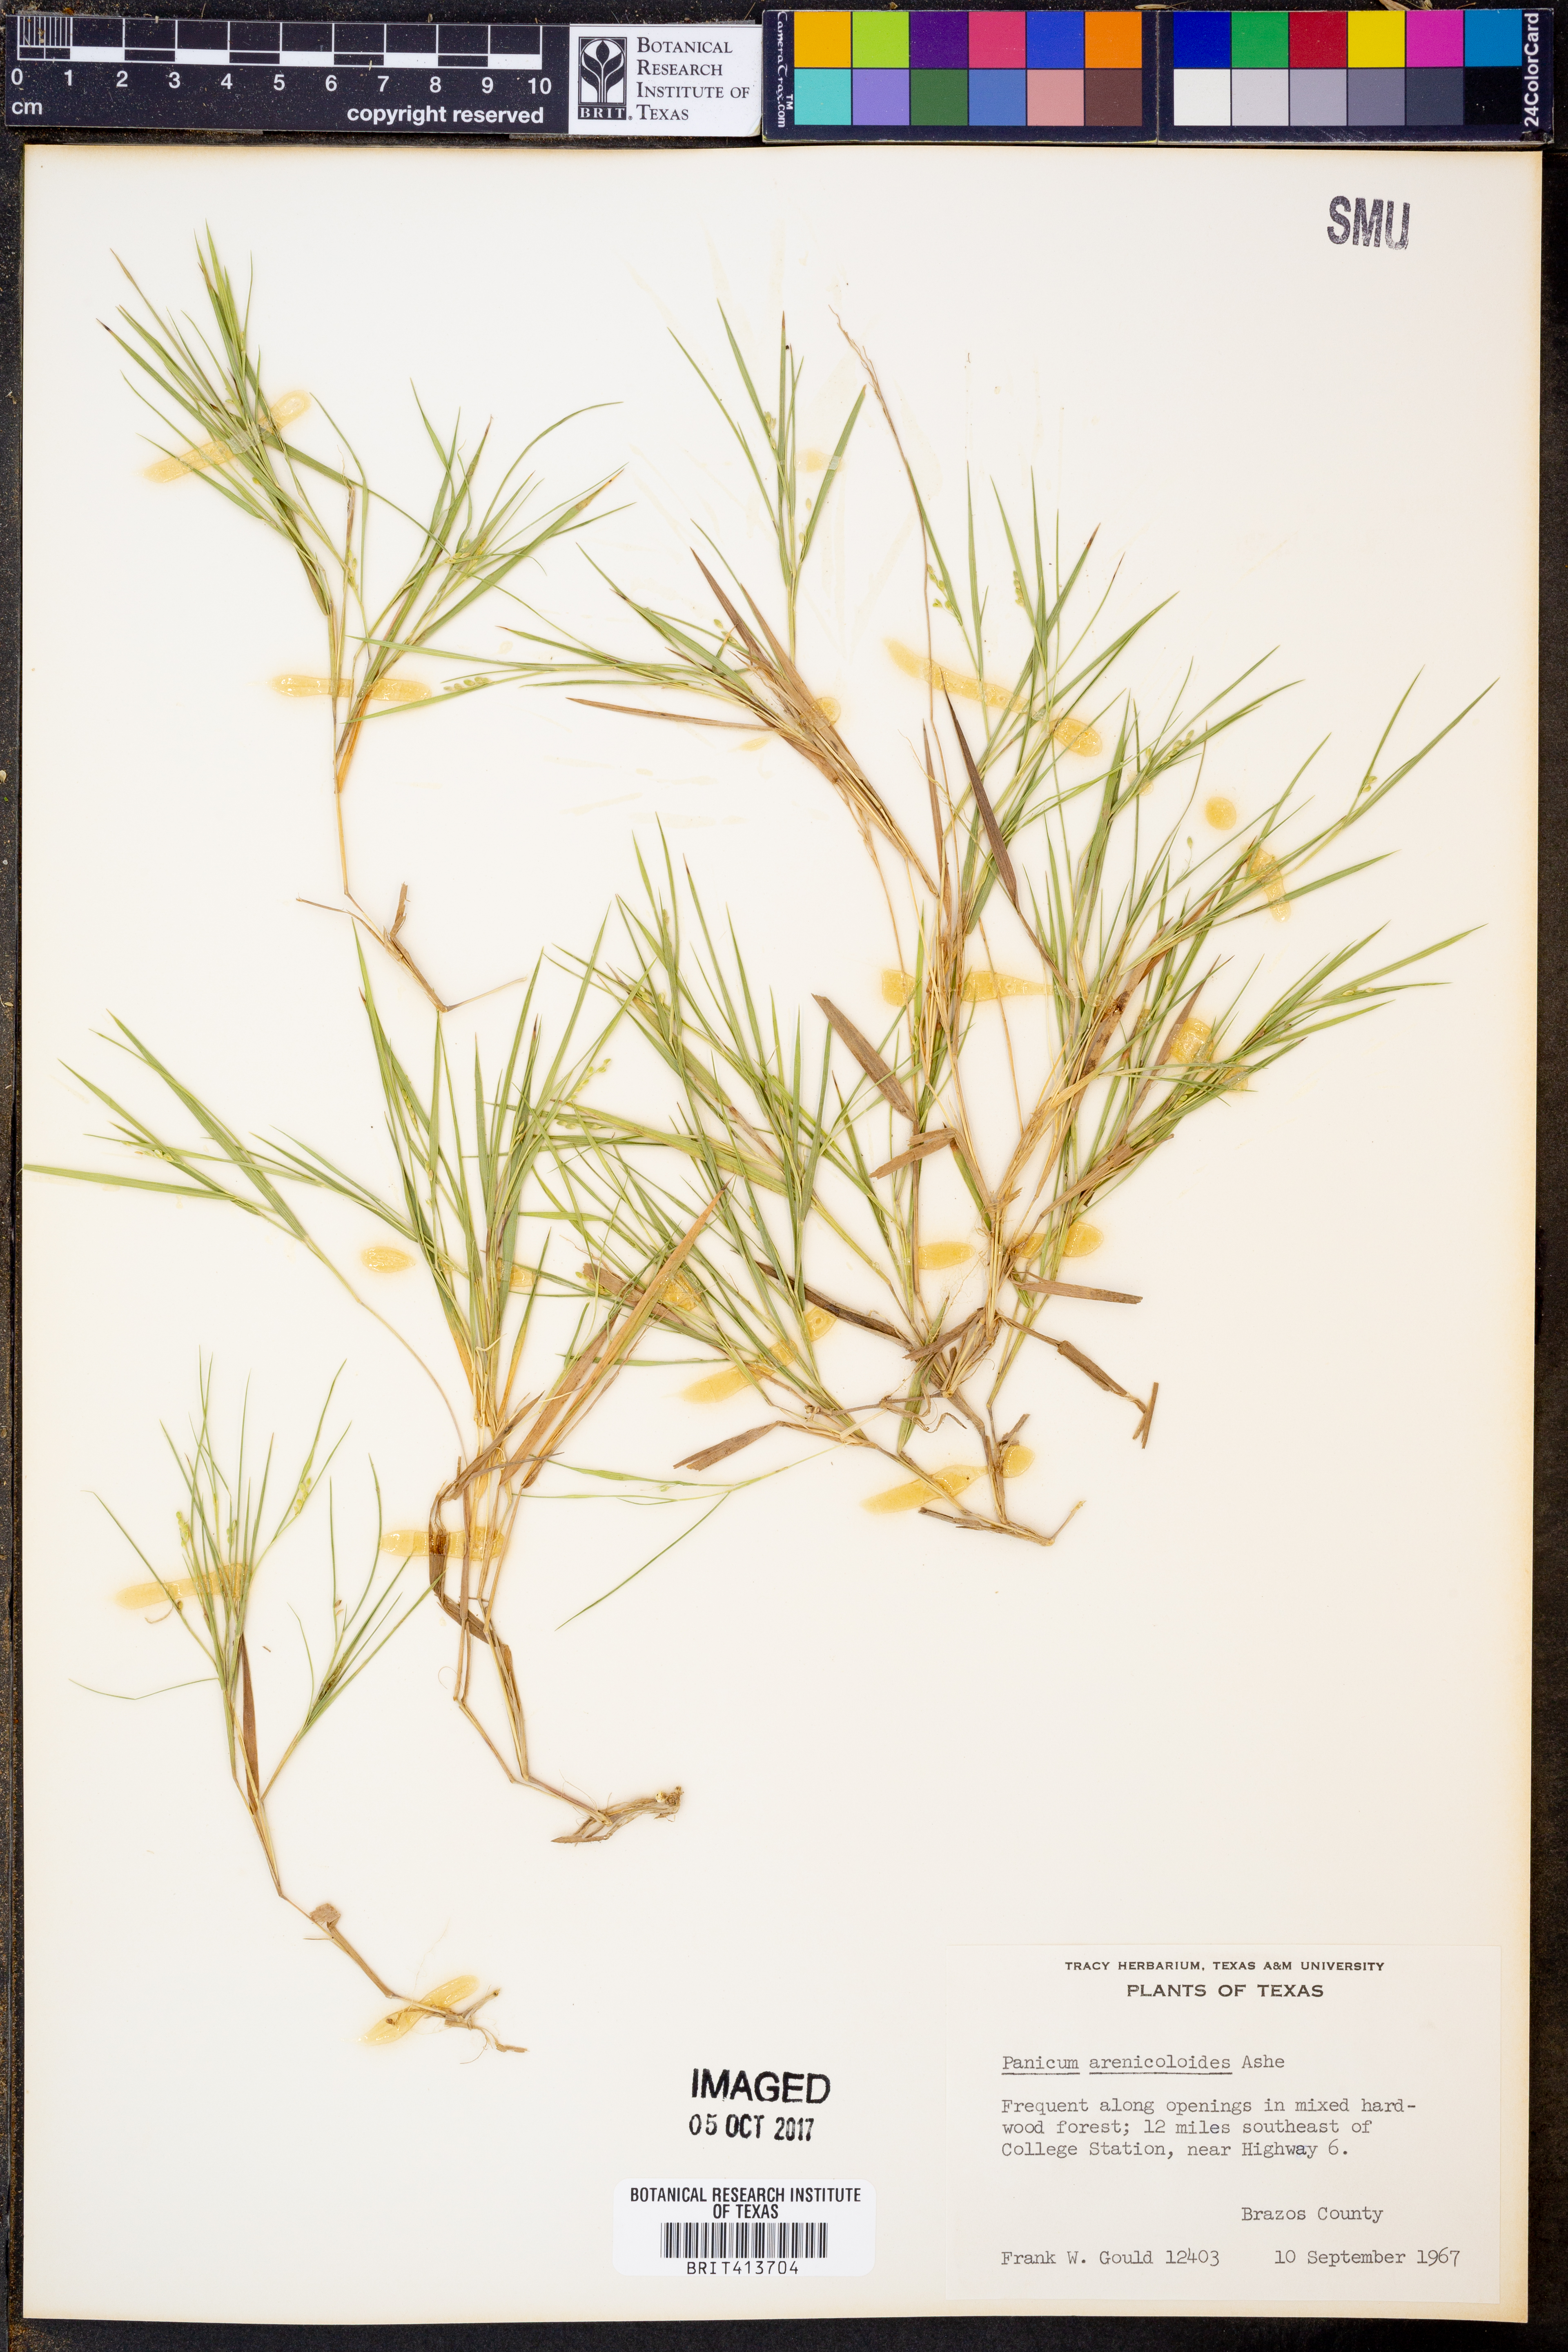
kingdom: Plantae
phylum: Tracheophyta
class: Liliopsida
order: Poales
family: Poaceae
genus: Dichanthelium
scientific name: Dichanthelium arenicoloides
